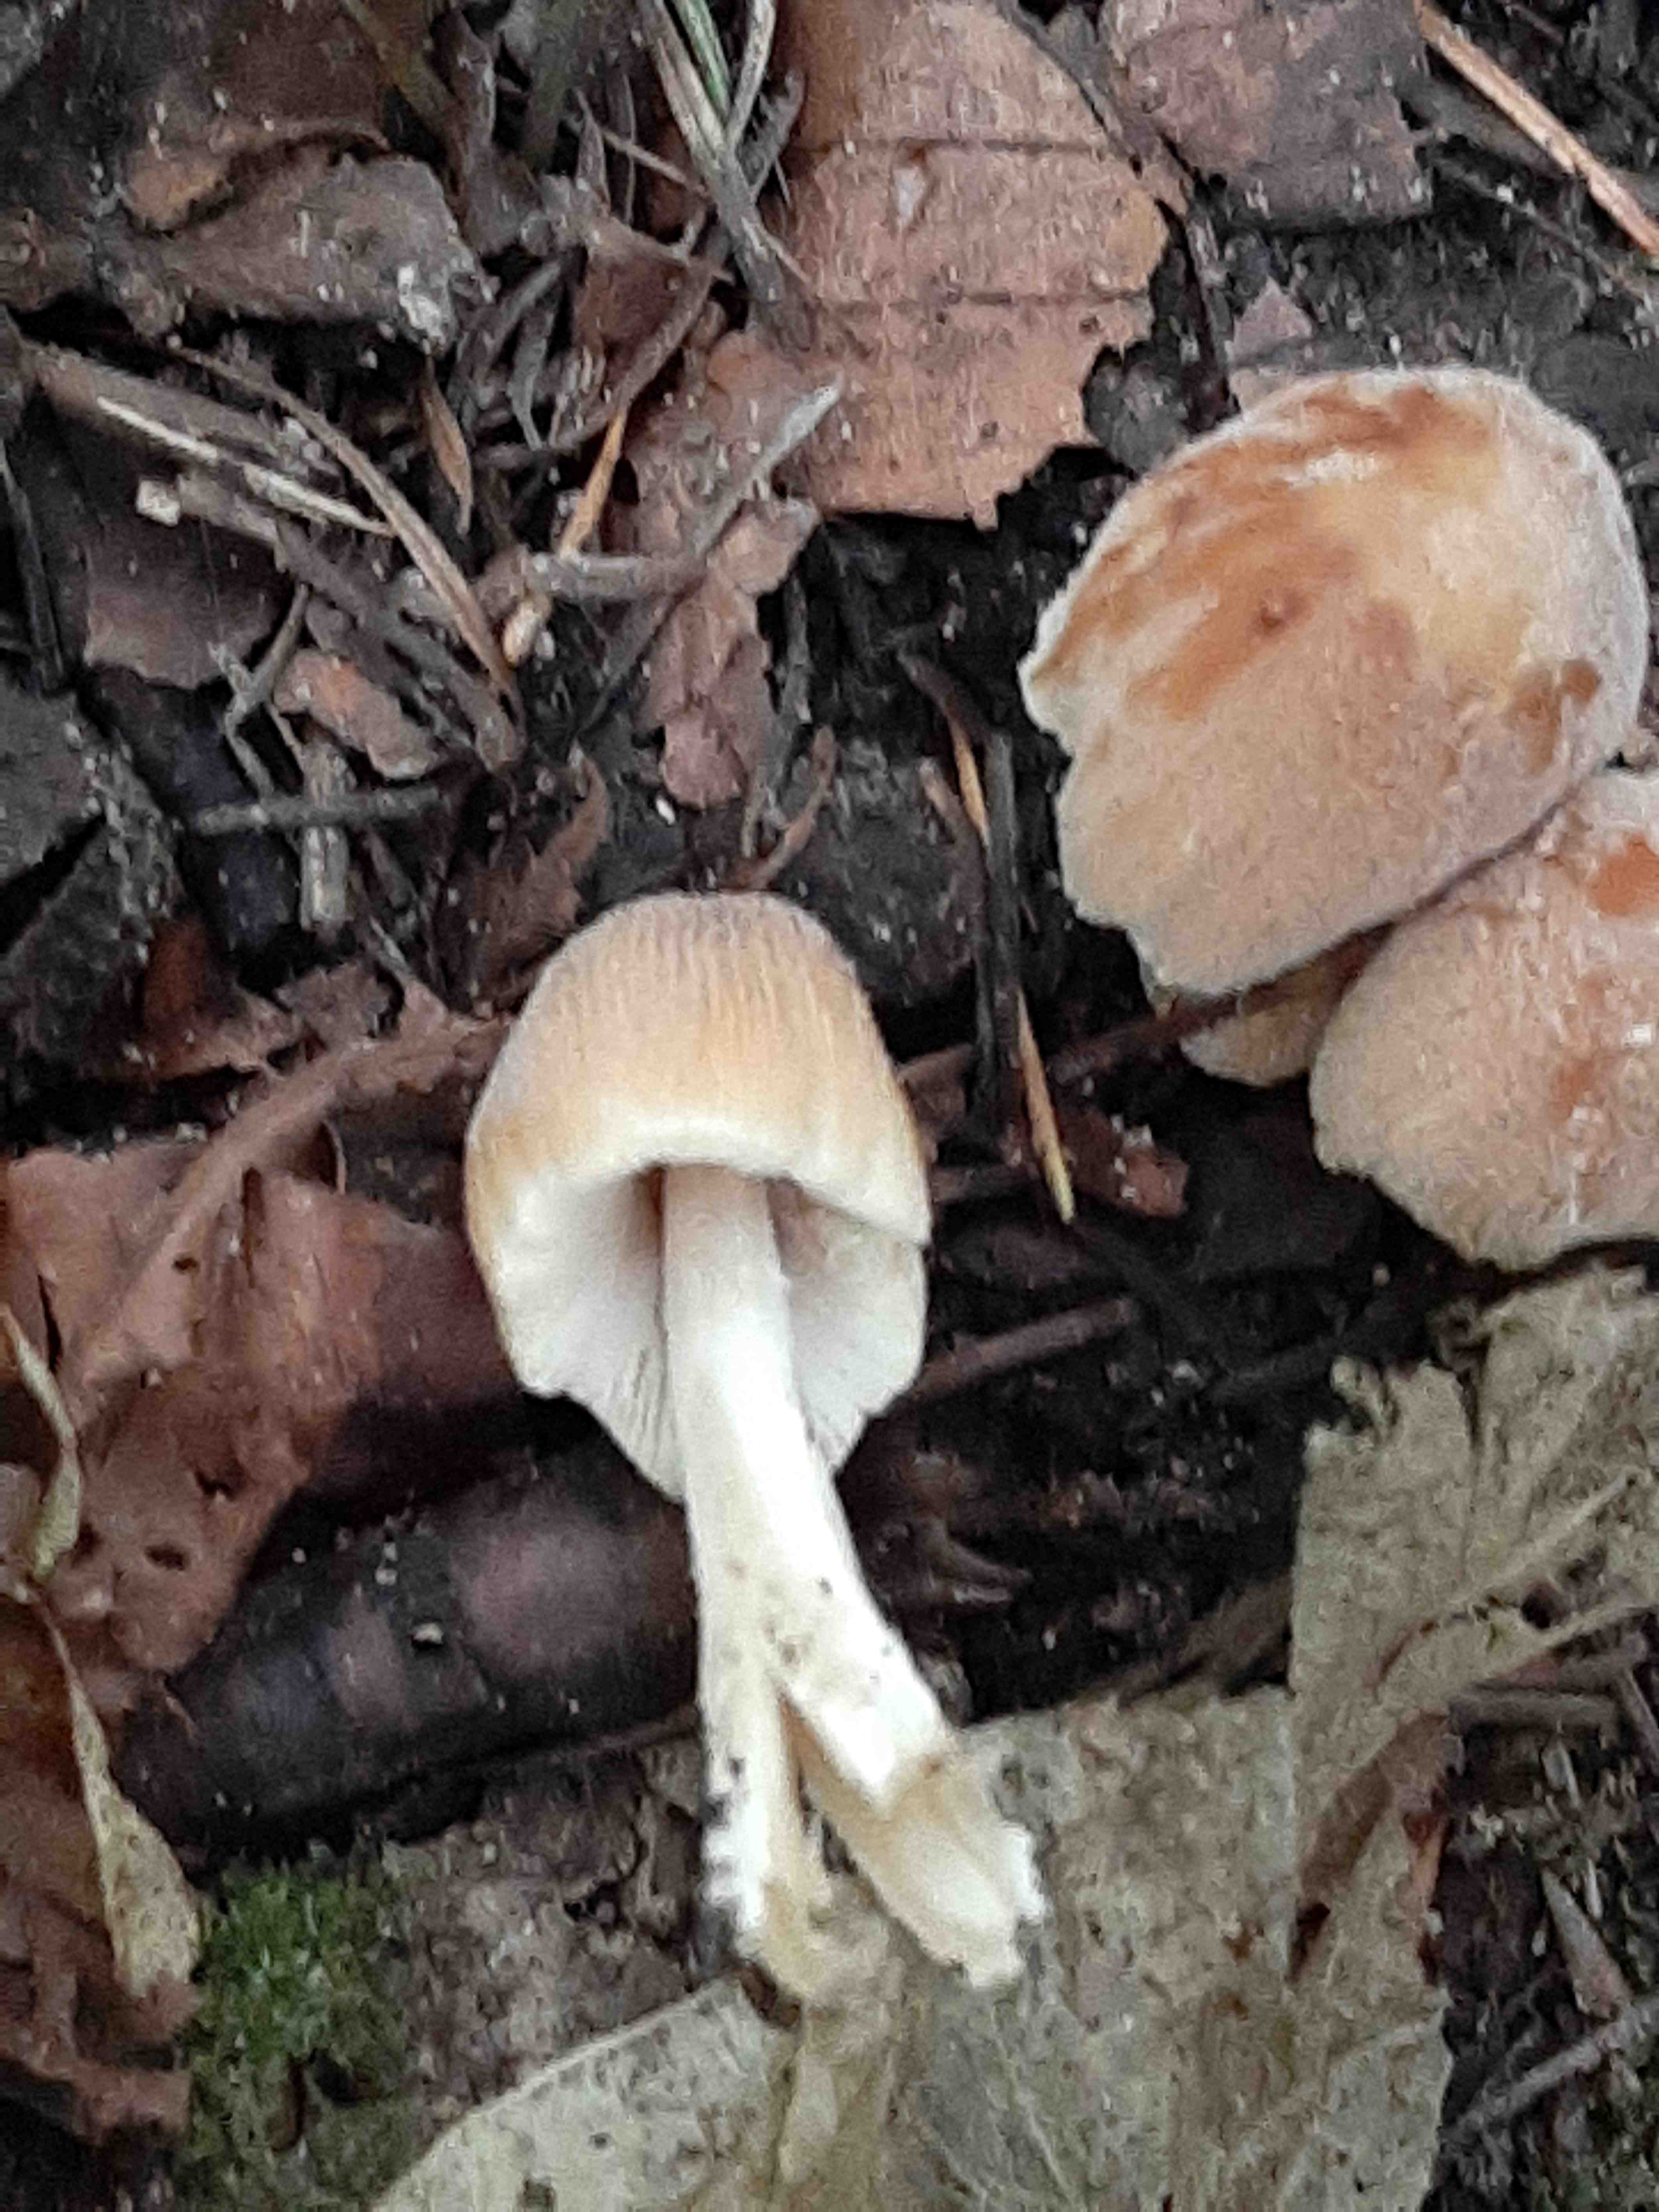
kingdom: Fungi
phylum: Basidiomycota
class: Agaricomycetes
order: Agaricales
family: Psathyrellaceae
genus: Coprinellus
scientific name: Coprinellus micaceus
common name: glimmer-blækhat
